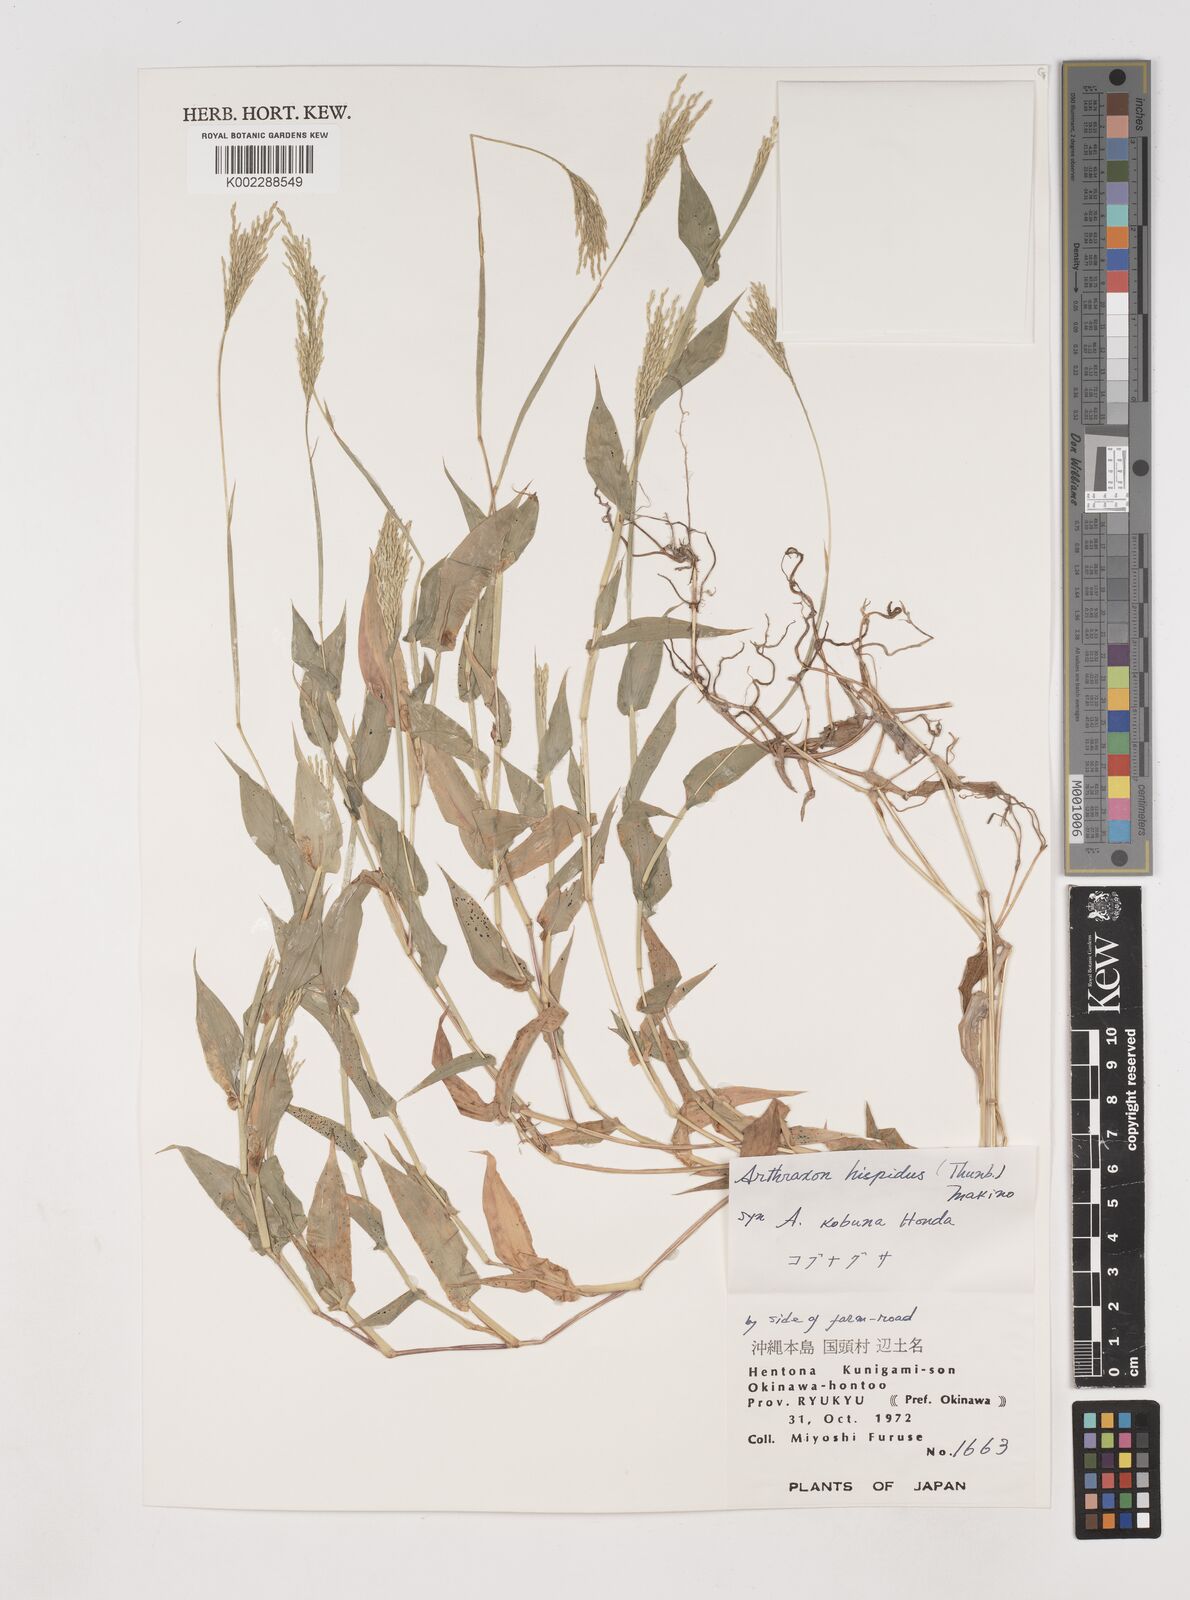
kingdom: Plantae
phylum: Tracheophyta
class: Liliopsida
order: Poales
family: Poaceae
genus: Arthraxon
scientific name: Arthraxon hispidus
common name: Small carpgrass
